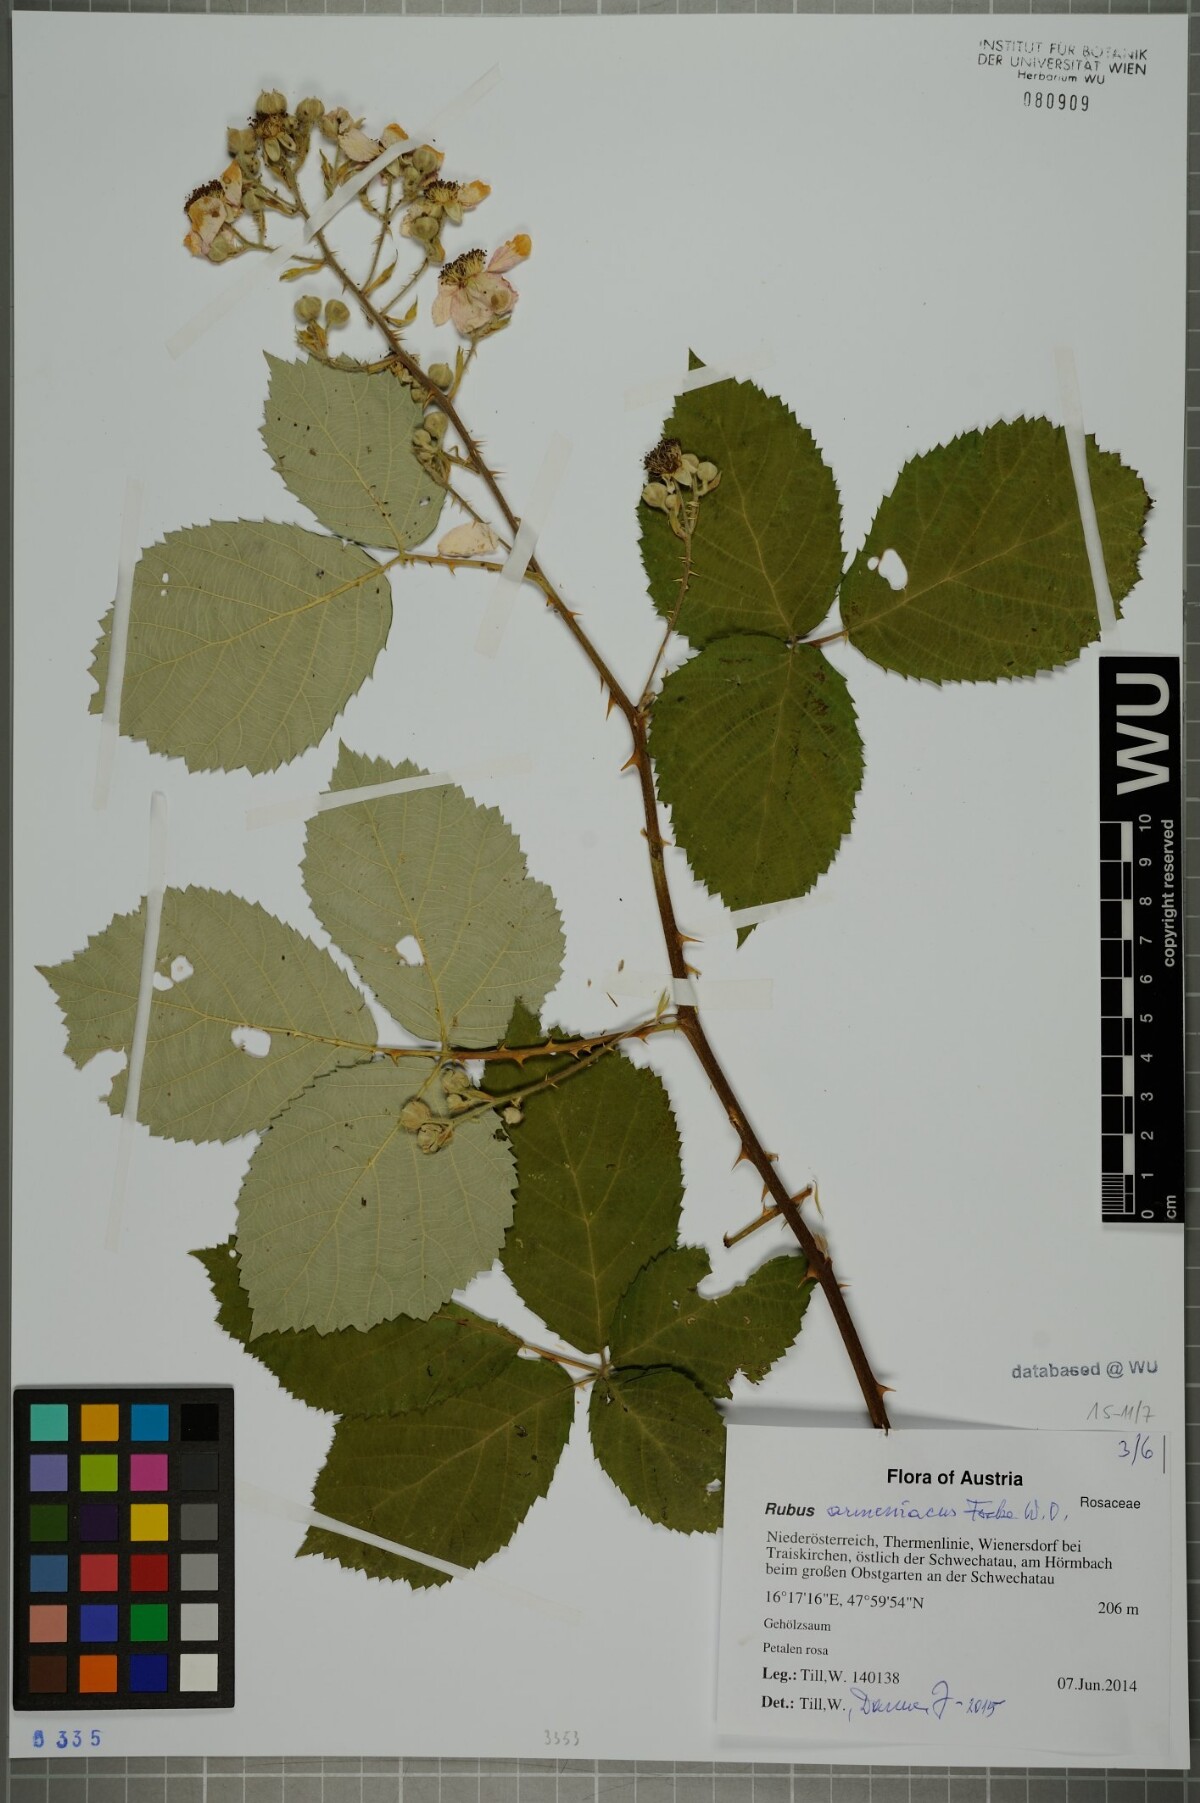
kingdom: Plantae
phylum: Tracheophyta
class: Magnoliopsida
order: Rosales
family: Rosaceae
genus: Rubus
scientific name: Rubus armeniacus
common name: Himalayan blackberry
